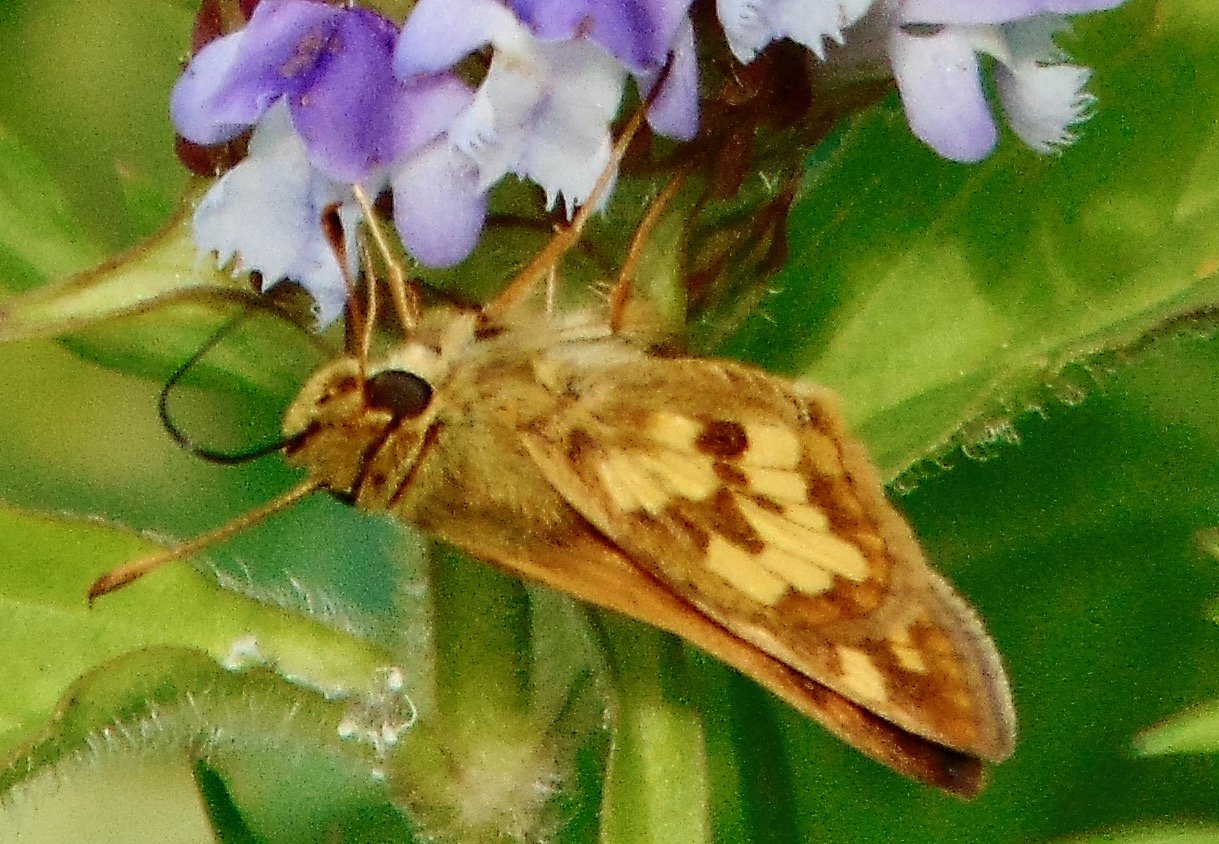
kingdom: Animalia
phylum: Arthropoda
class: Insecta
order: Lepidoptera
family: Hesperiidae
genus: Polites
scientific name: Polites coras
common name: Peck's Skipper
